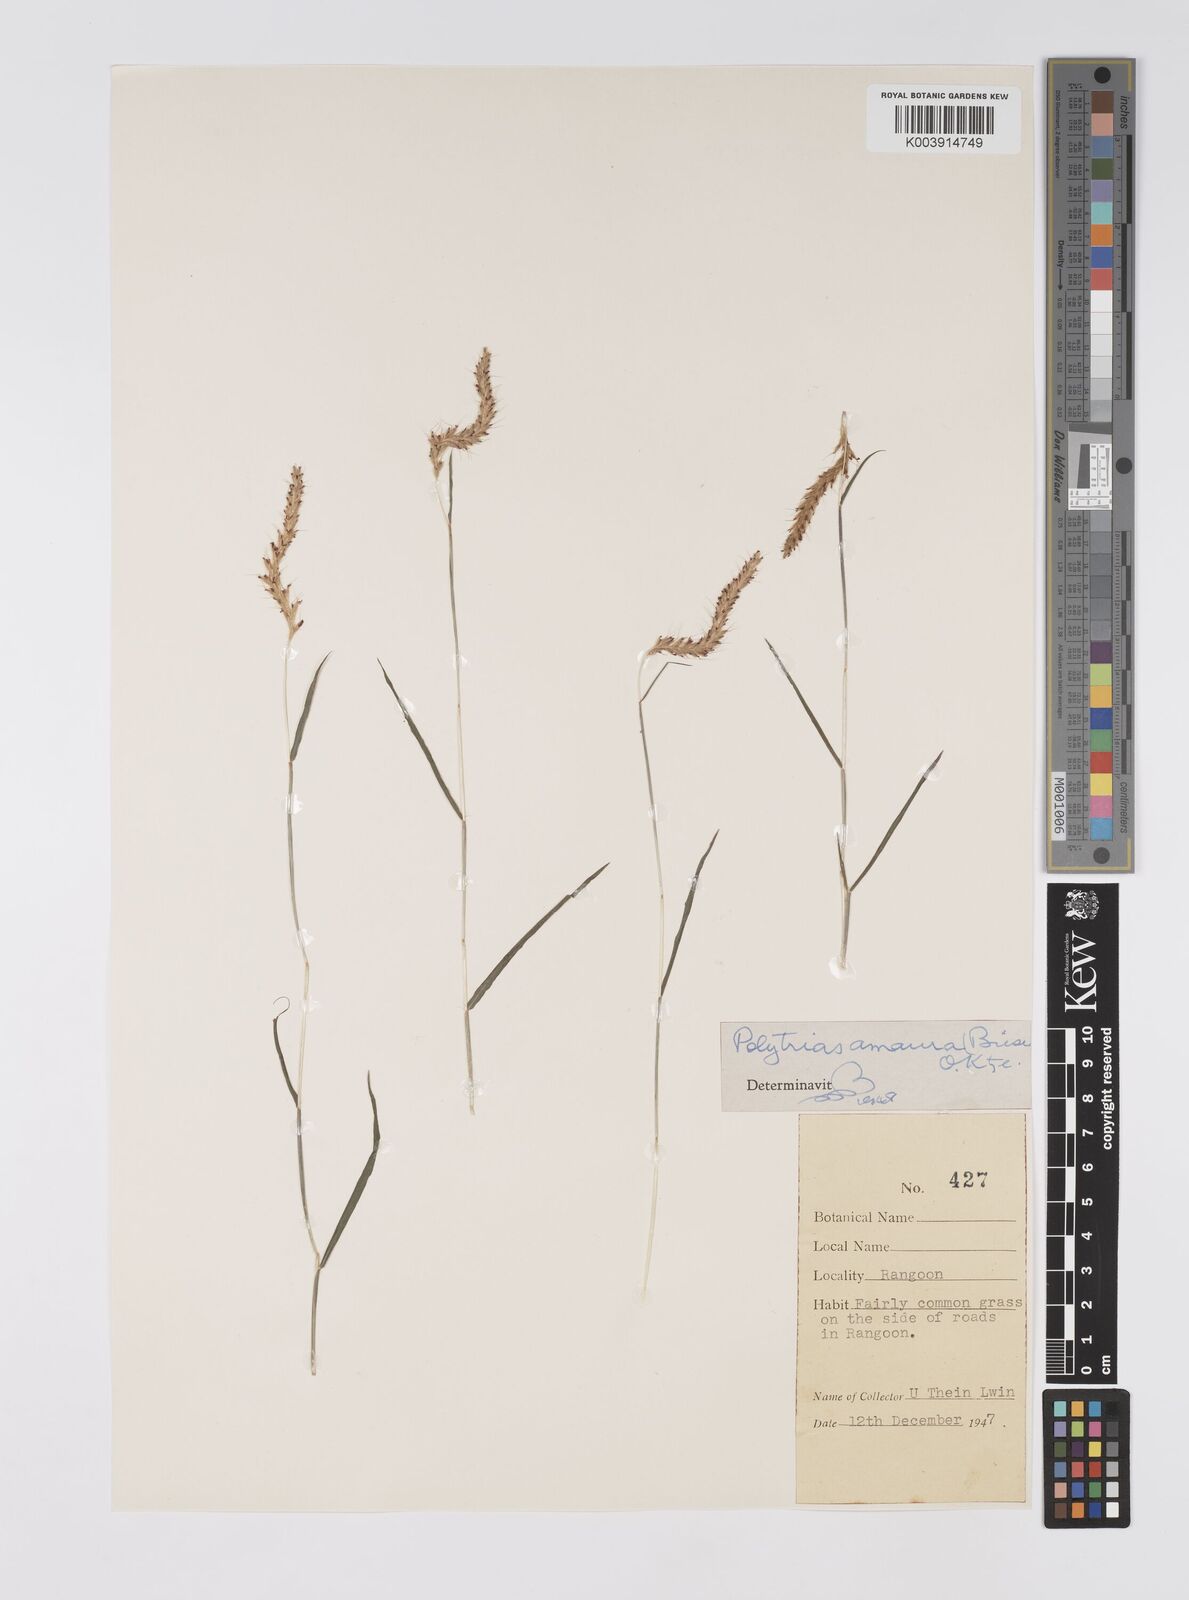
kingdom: Plantae
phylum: Tracheophyta
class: Liliopsida
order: Poales
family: Poaceae
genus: Polytrias
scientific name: Polytrias indica
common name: Indian murainagrass
